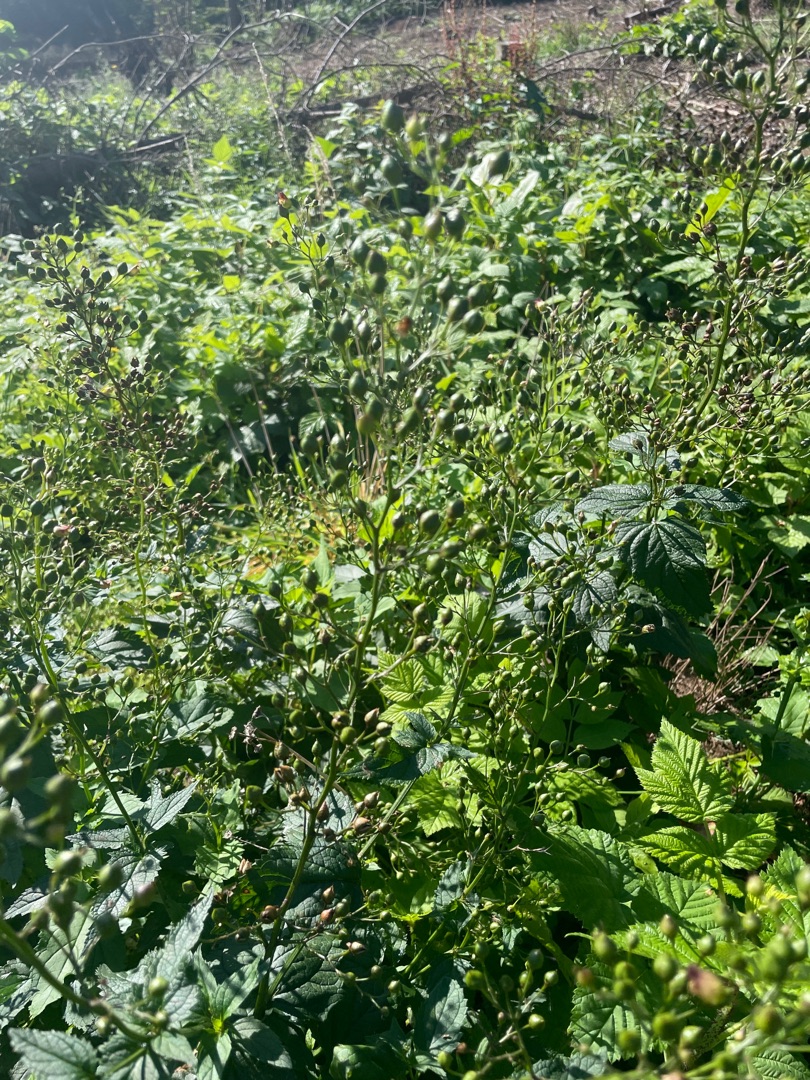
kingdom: Plantae
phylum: Tracheophyta
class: Magnoliopsida
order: Lamiales
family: Scrophulariaceae
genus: Scrophularia
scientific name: Scrophularia nodosa
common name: Knoldet brunrod
